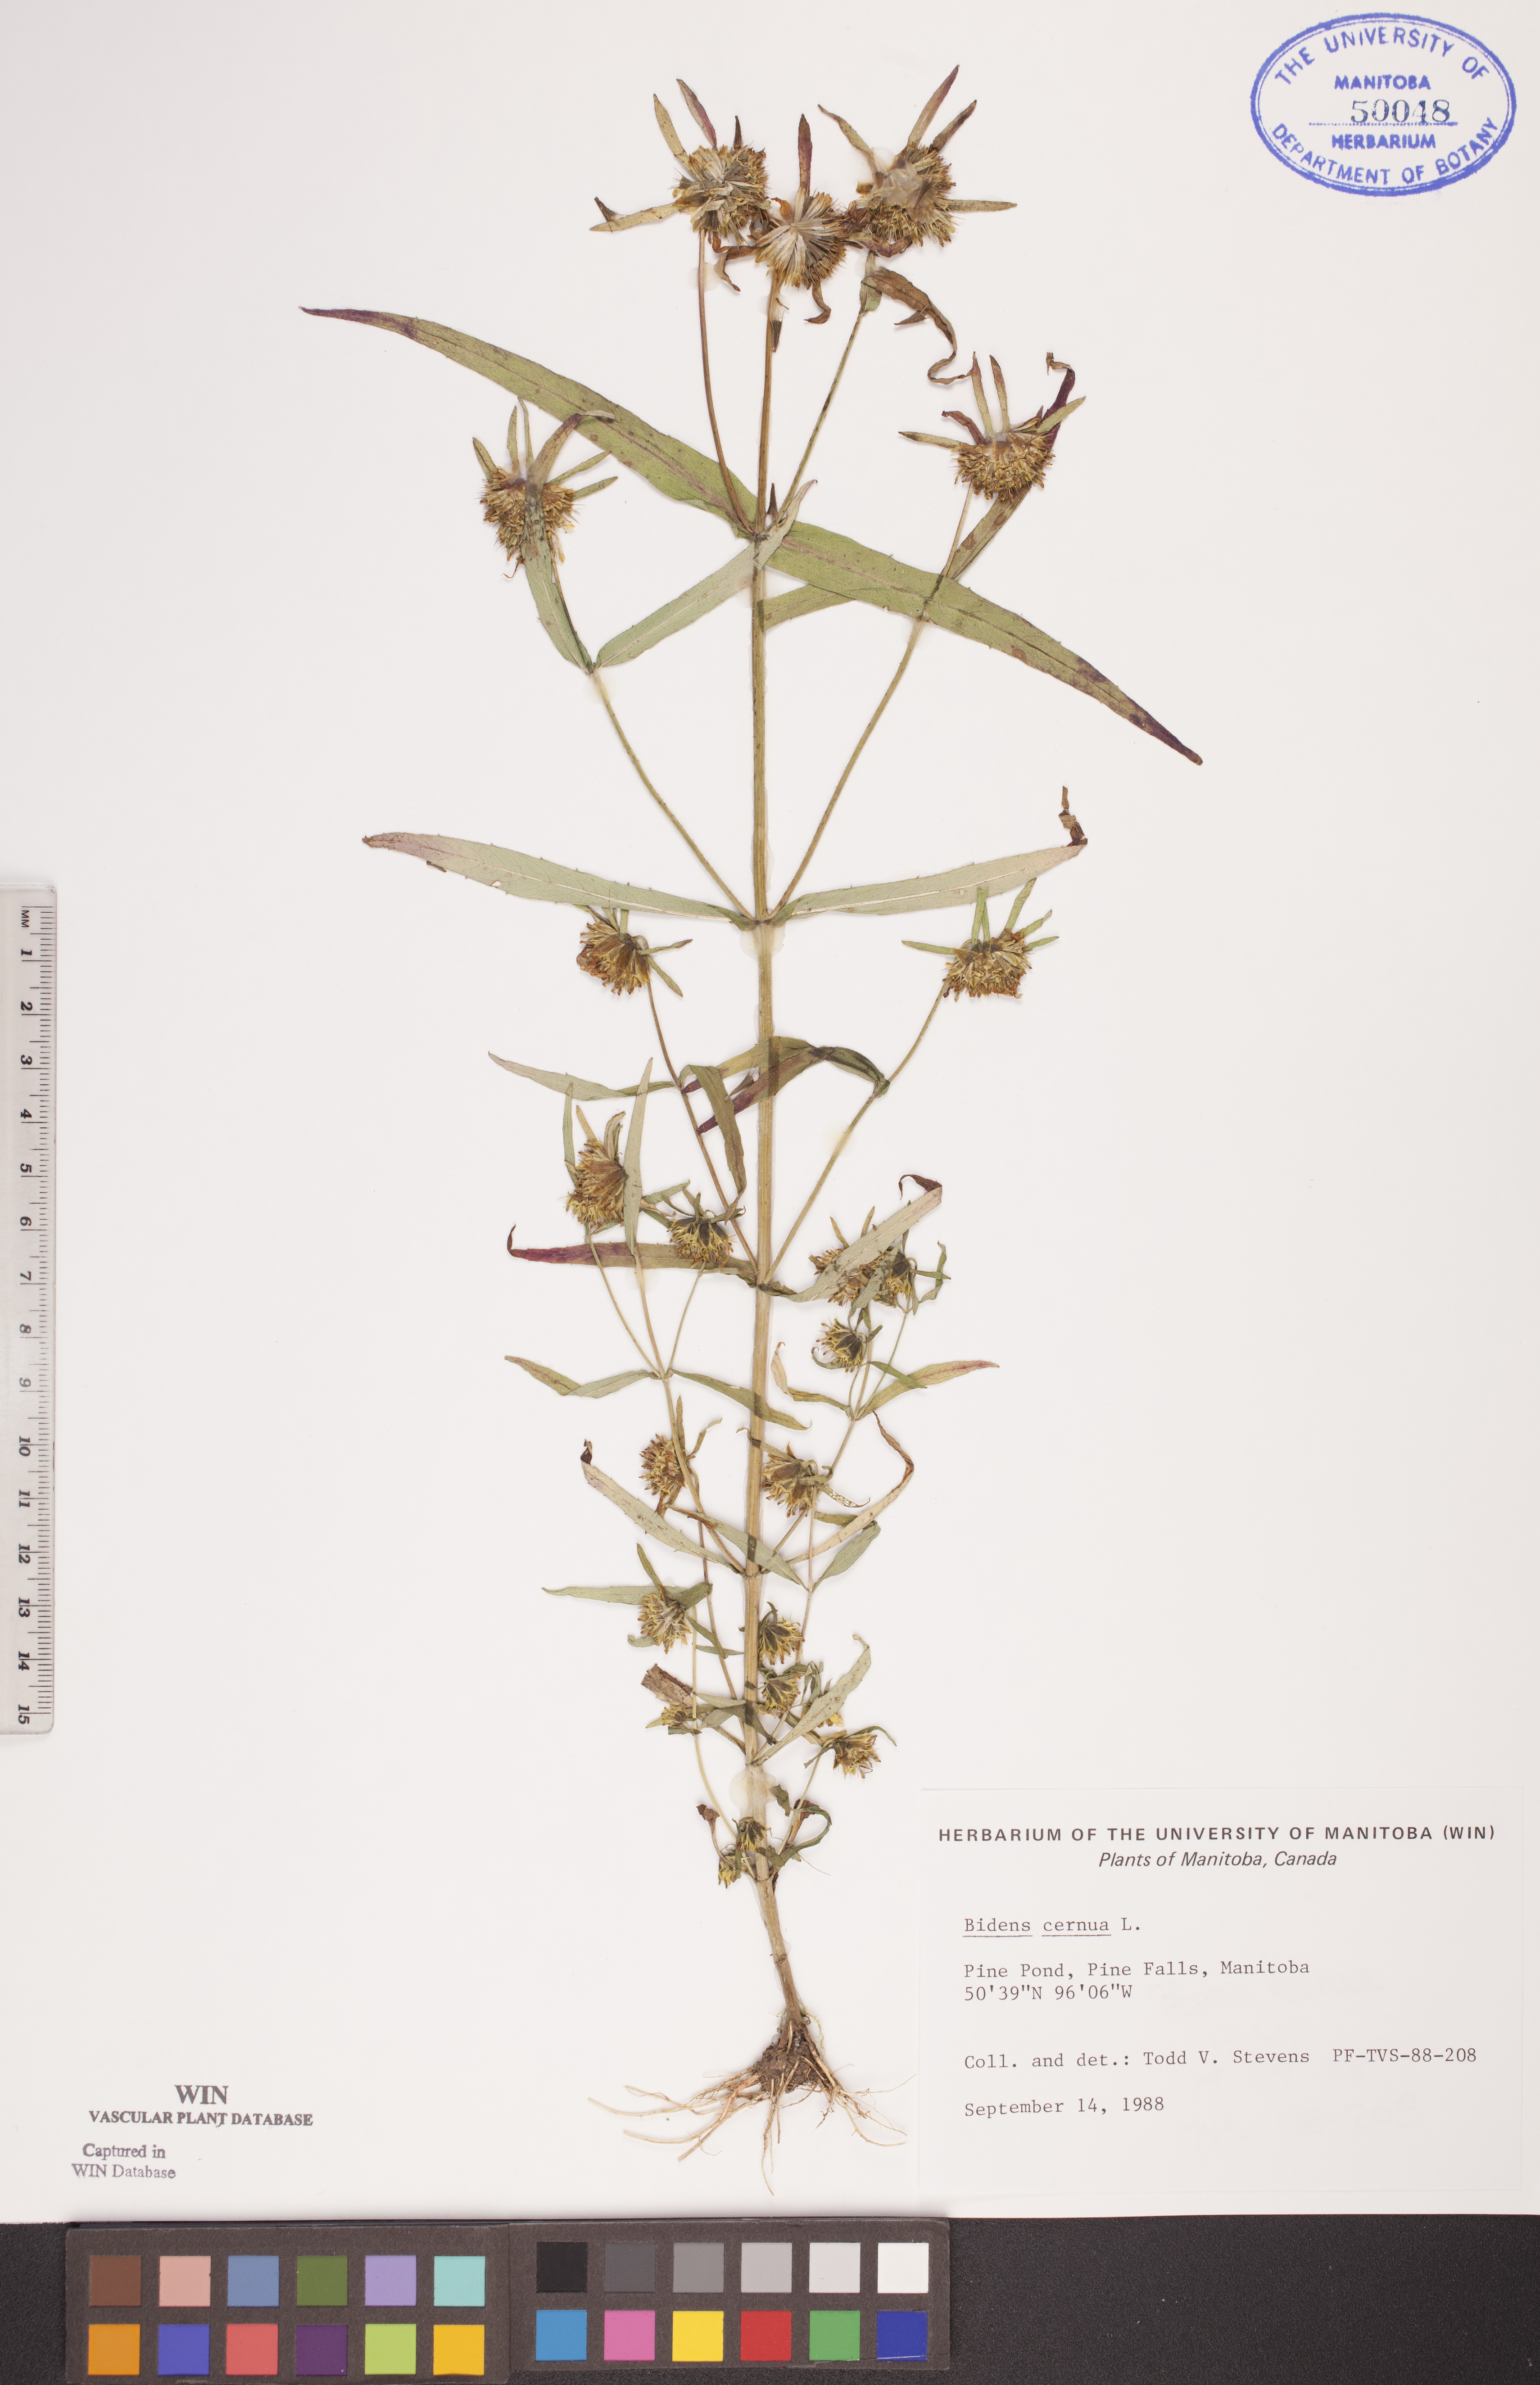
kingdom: Plantae
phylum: Tracheophyta
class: Magnoliopsida
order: Asterales
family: Asteraceae
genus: Bidens
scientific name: Bidens cernua
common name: Nodding bur-marigold
